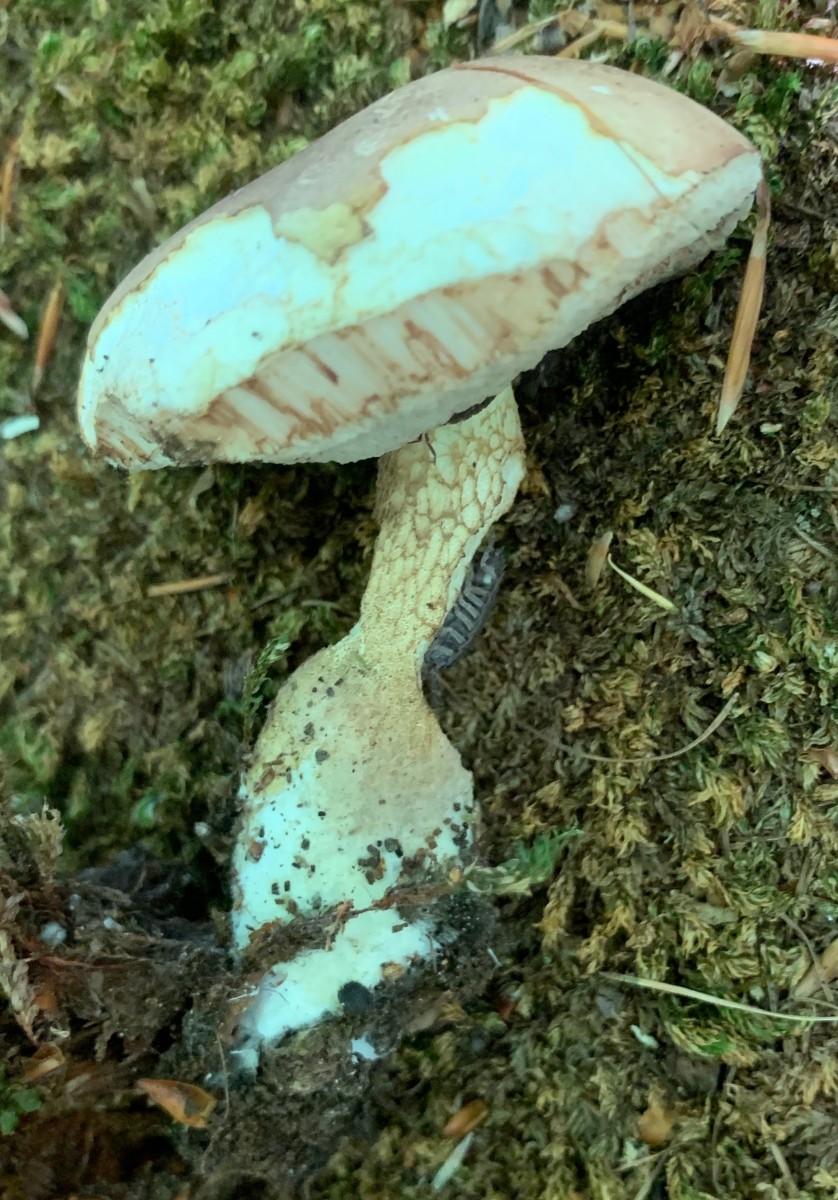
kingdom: Fungi
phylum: Basidiomycota
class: Agaricomycetes
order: Boletales
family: Boletaceae
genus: Tylopilus
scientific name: Tylopilus felleus
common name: galderørhat
